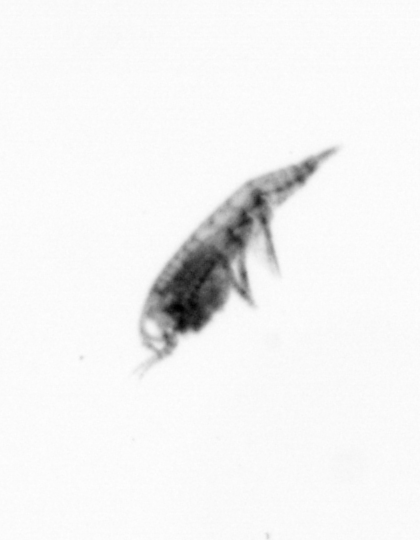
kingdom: Animalia
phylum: Arthropoda
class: Copepoda
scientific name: Copepoda
